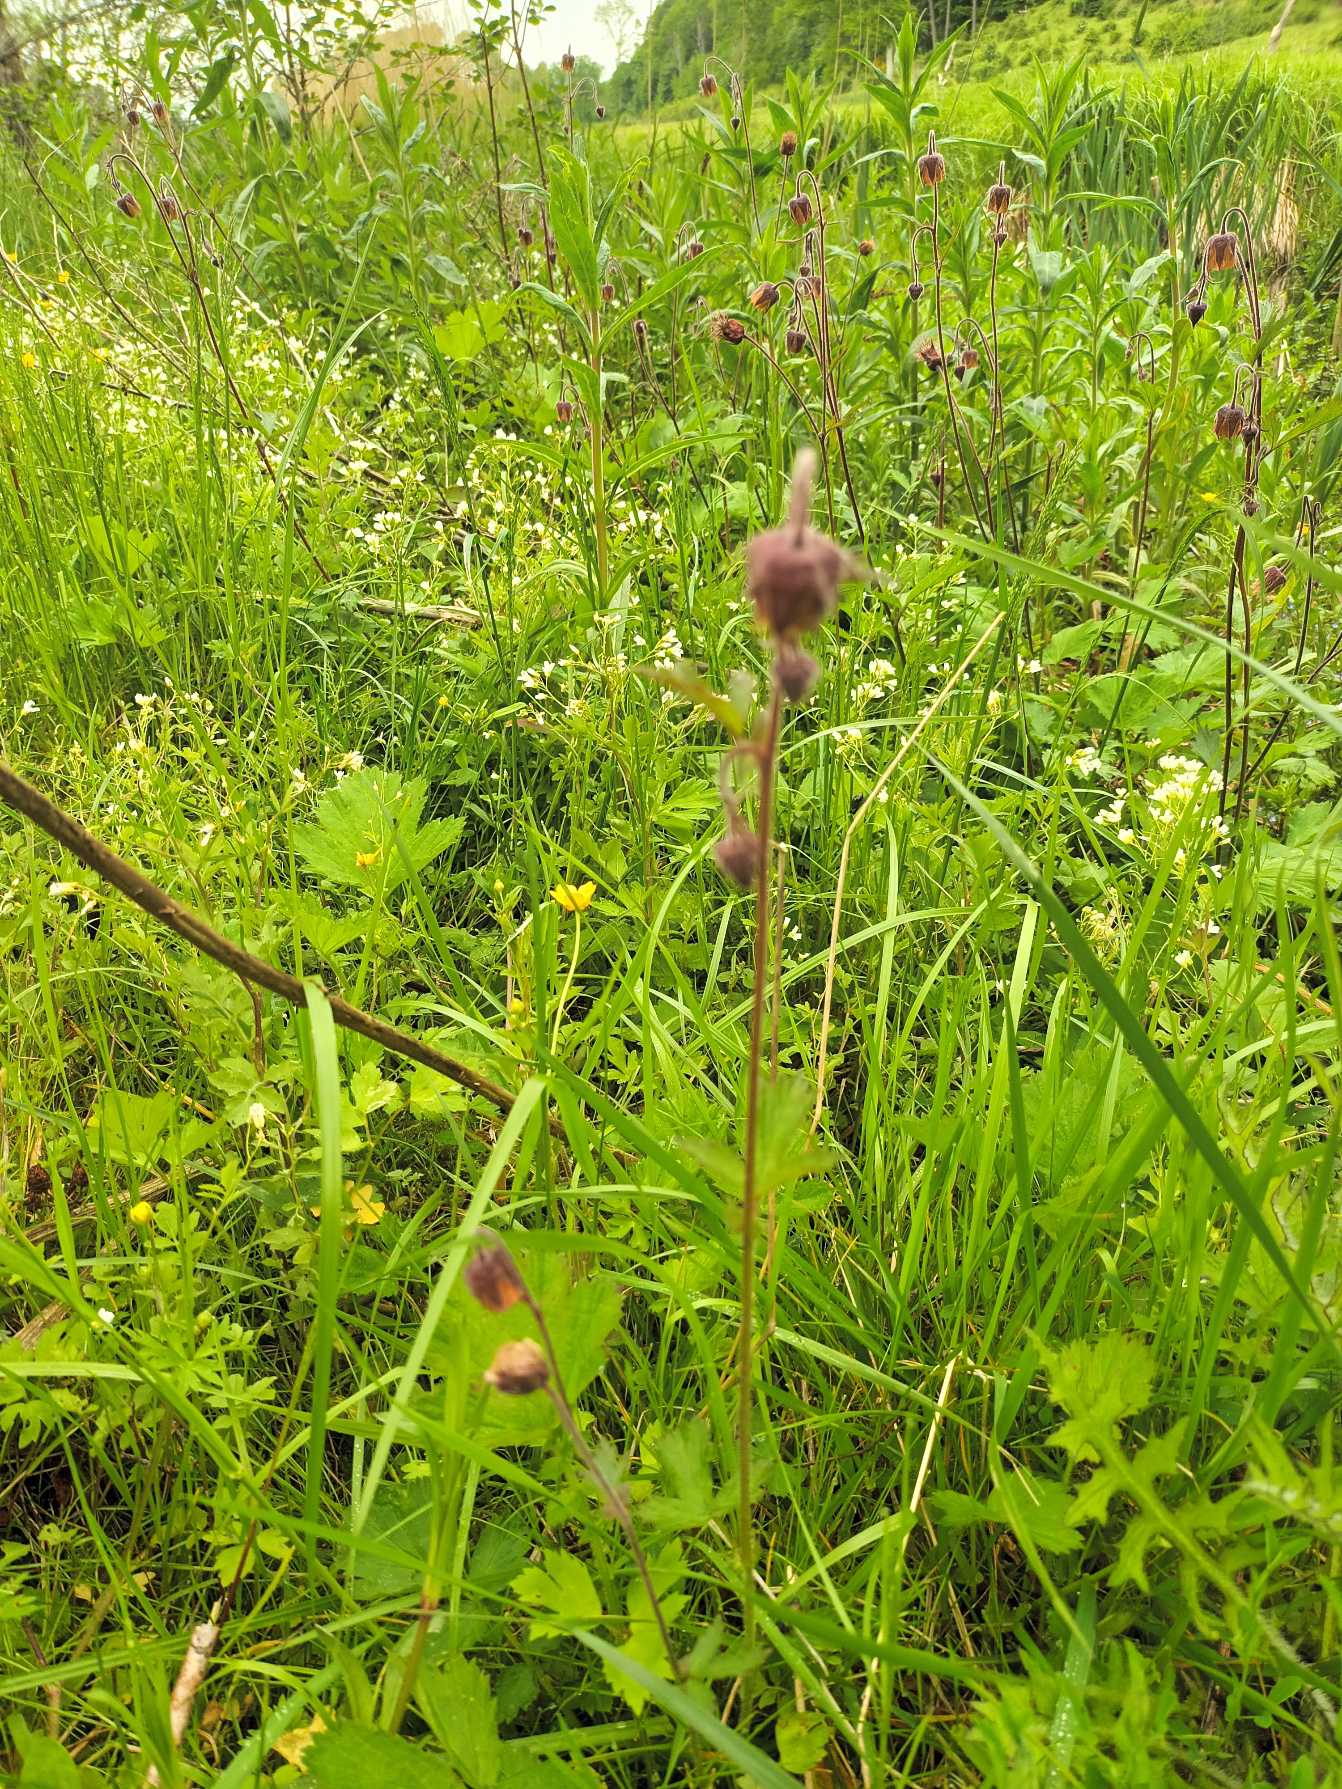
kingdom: Plantae
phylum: Tracheophyta
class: Magnoliopsida
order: Rosales
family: Rosaceae
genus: Geum
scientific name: Geum rivale
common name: Eng-nellikerod
